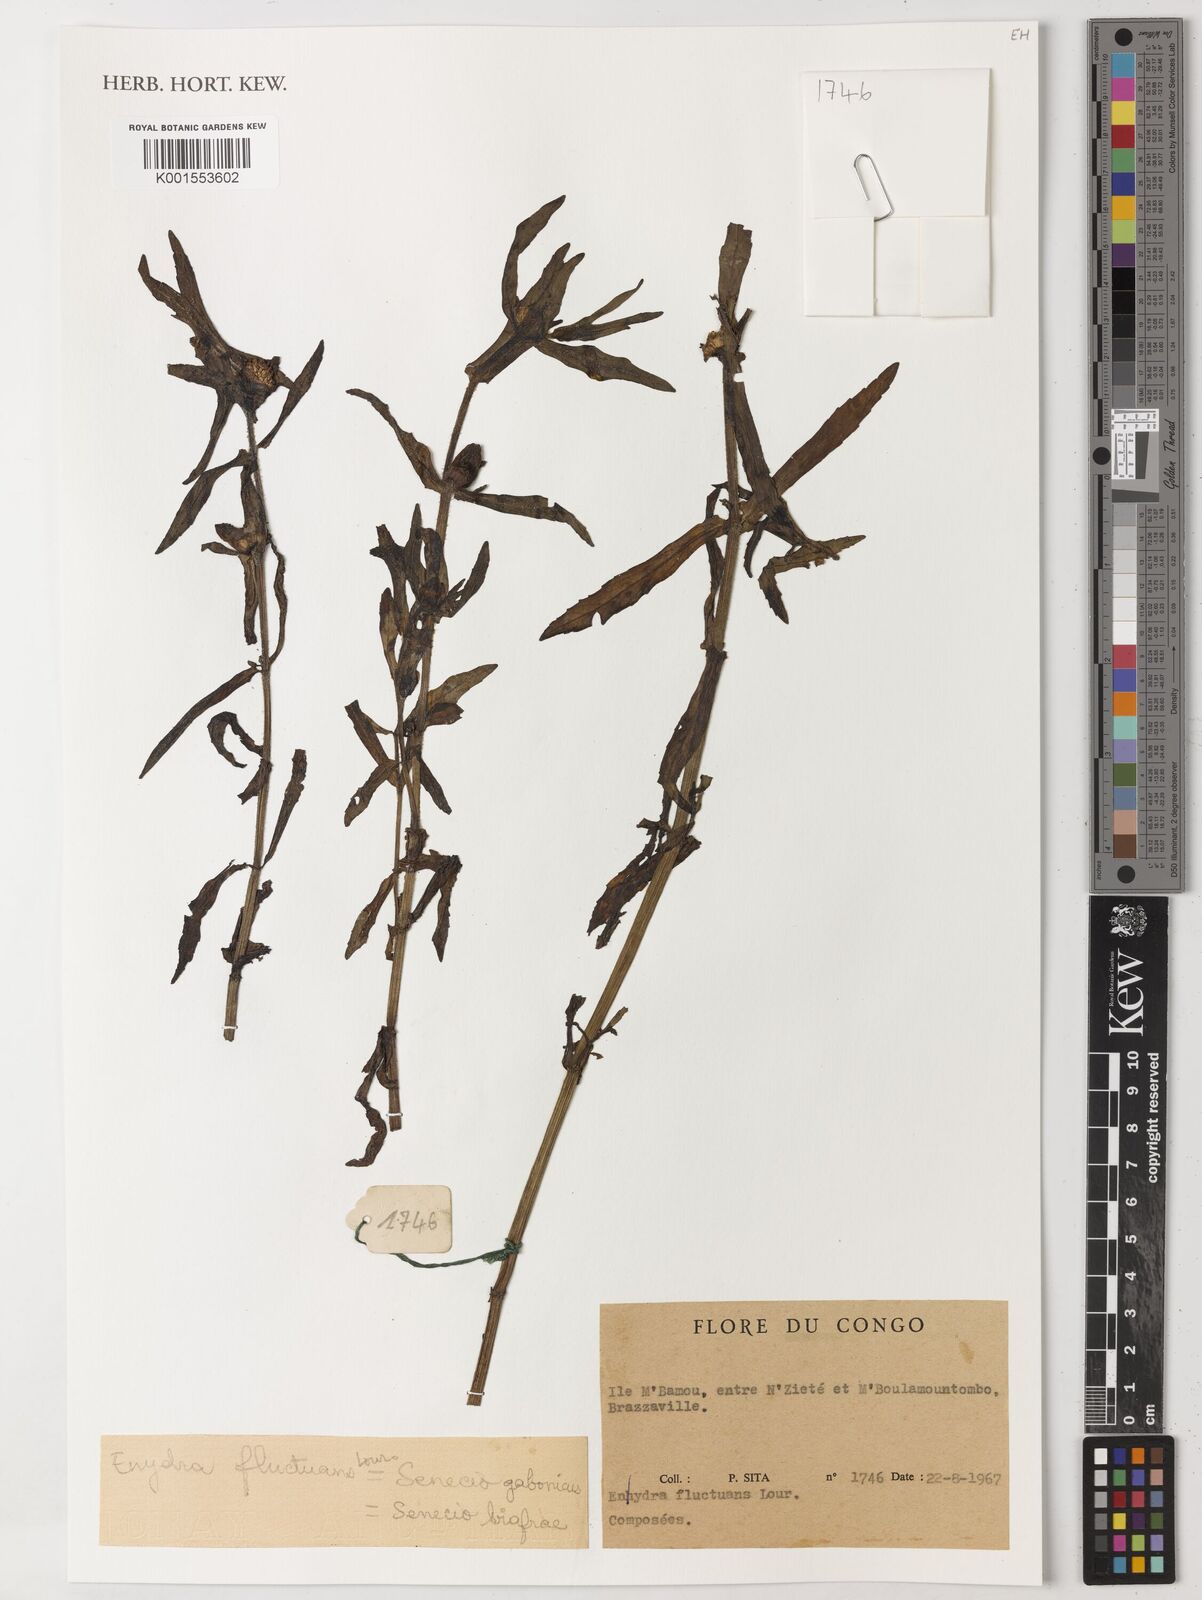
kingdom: Plantae
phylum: Tracheophyta
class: Magnoliopsida
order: Asterales
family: Asteraceae
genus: Enydra
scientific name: Enydra fluctuans
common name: Buffalo spinach
